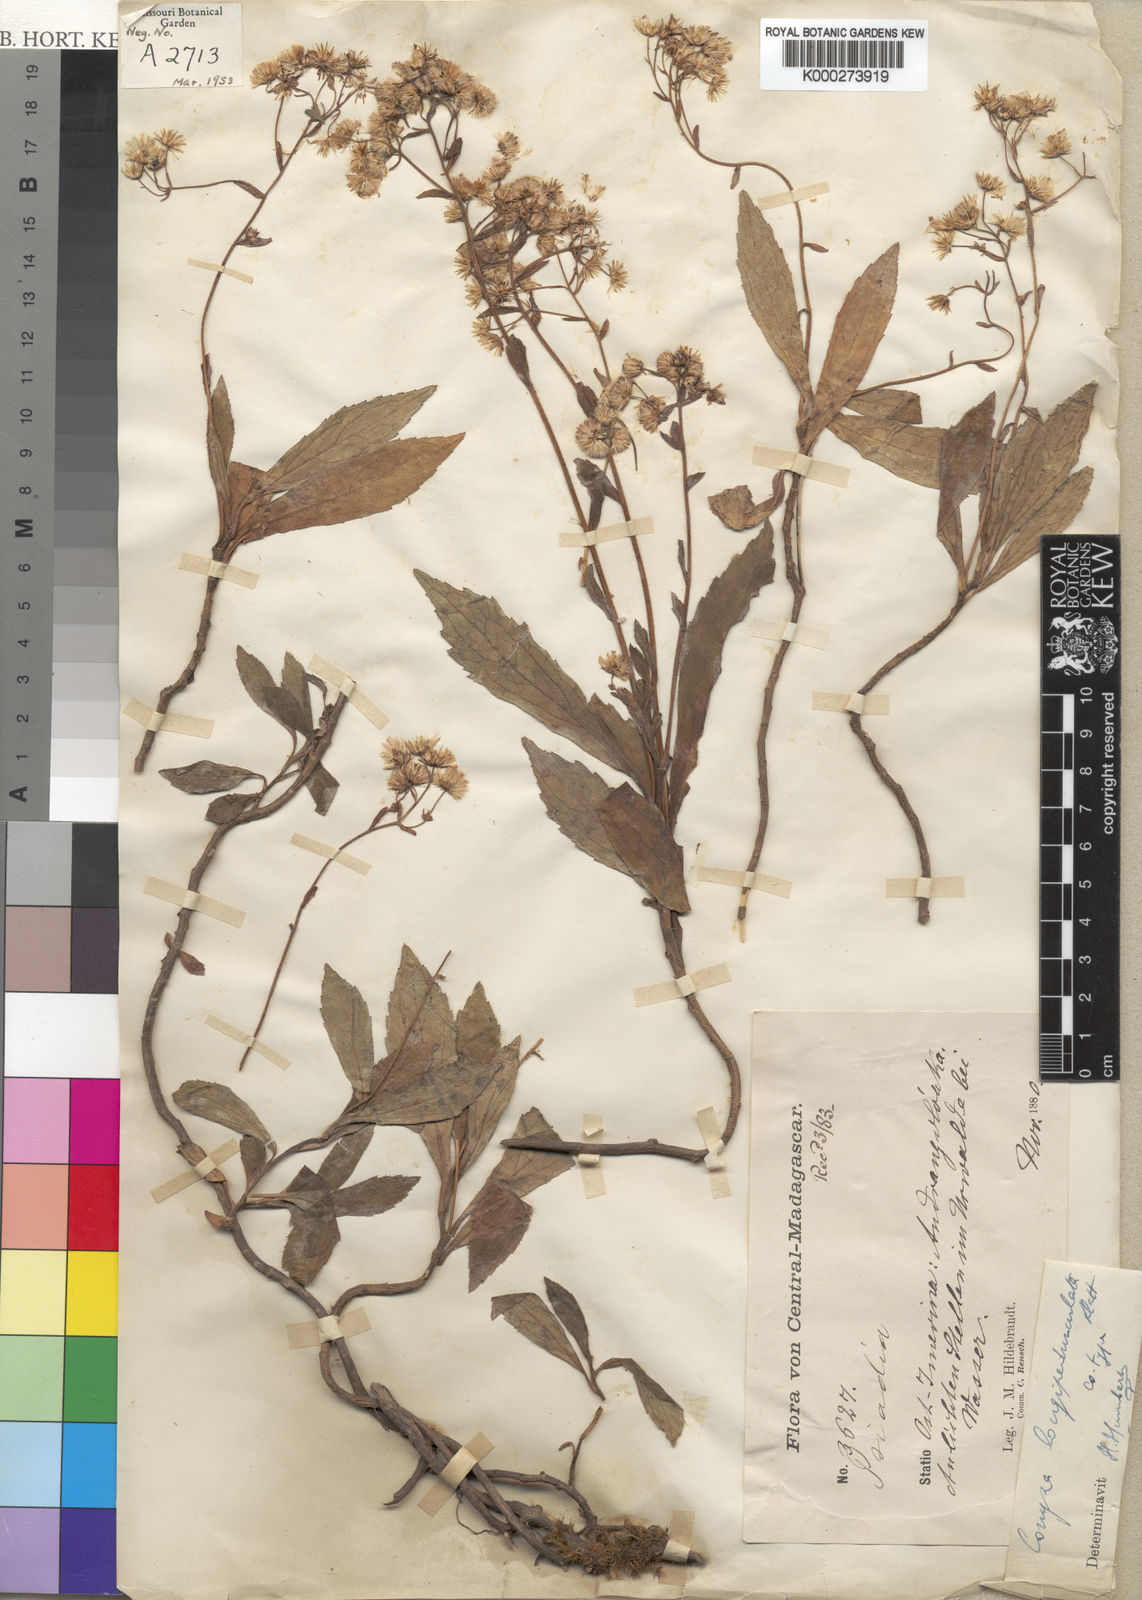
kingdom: Plantae
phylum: Tracheophyta
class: Magnoliopsida
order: Asterales
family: Asteraceae
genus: Conyza
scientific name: Conyza longipedunculata
